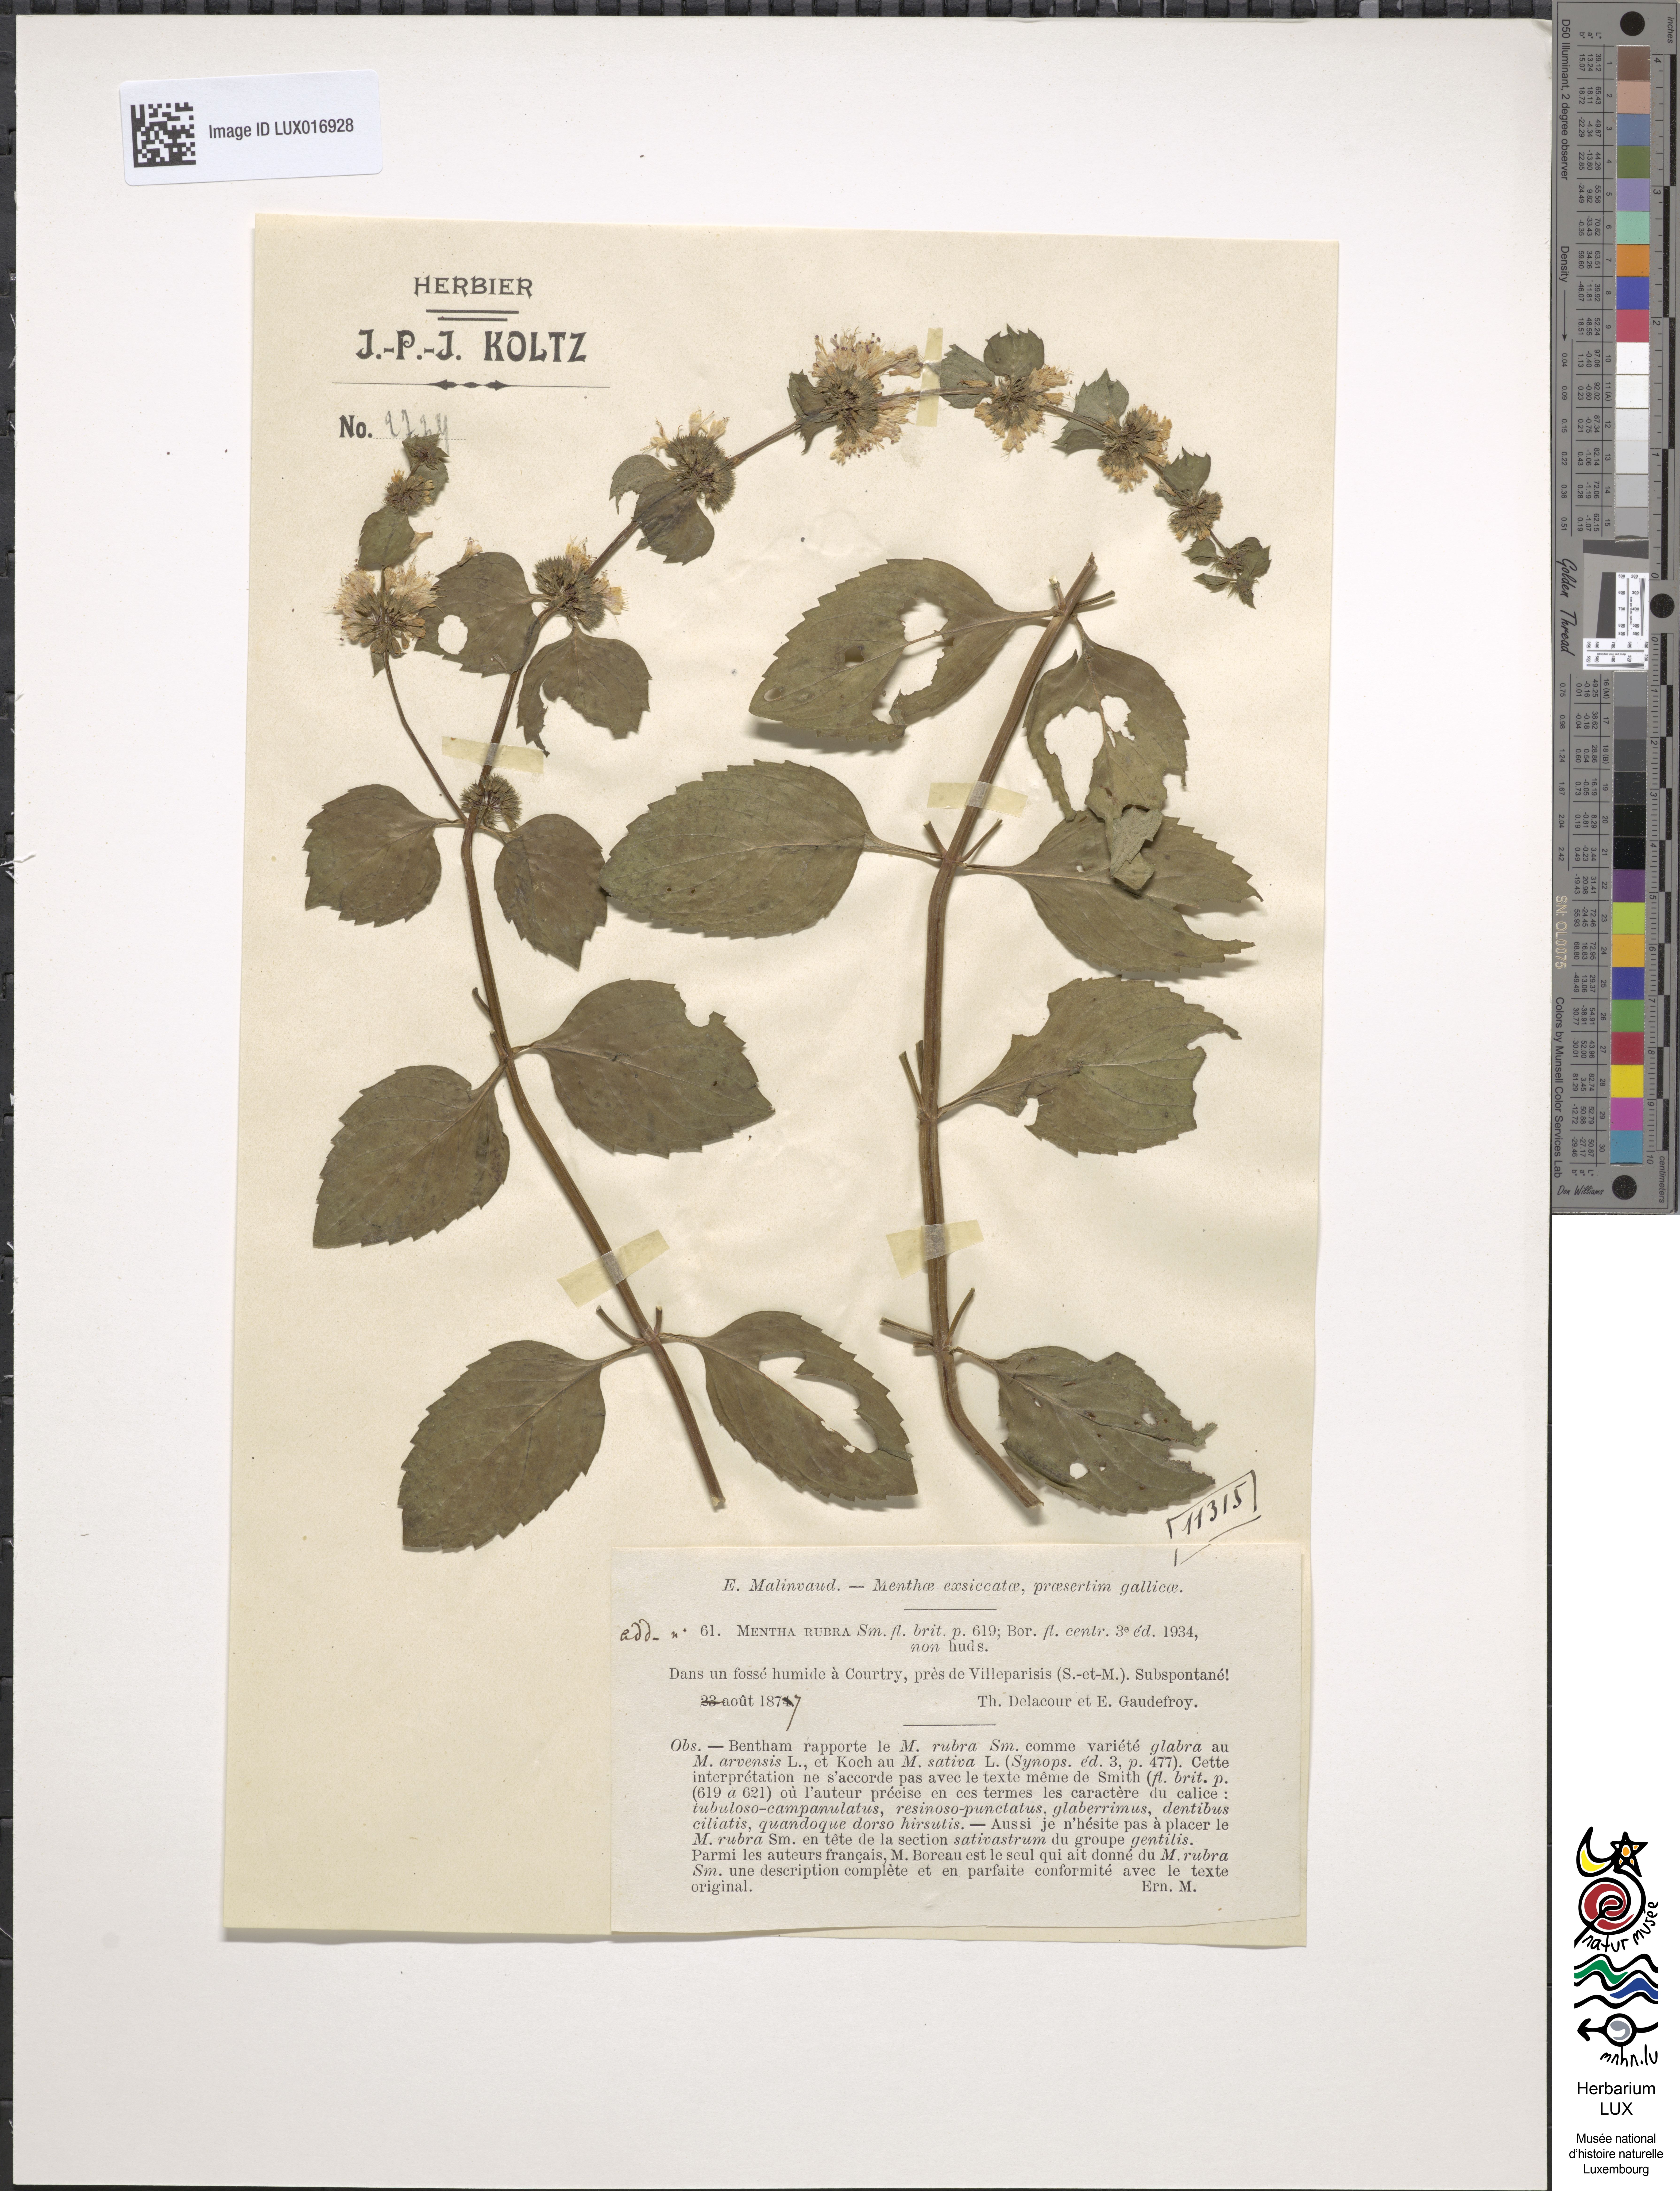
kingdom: Plantae
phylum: Tracheophyta
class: Magnoliopsida
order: Lamiales
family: Lamiaceae
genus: Mentha
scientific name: Mentha rubra
